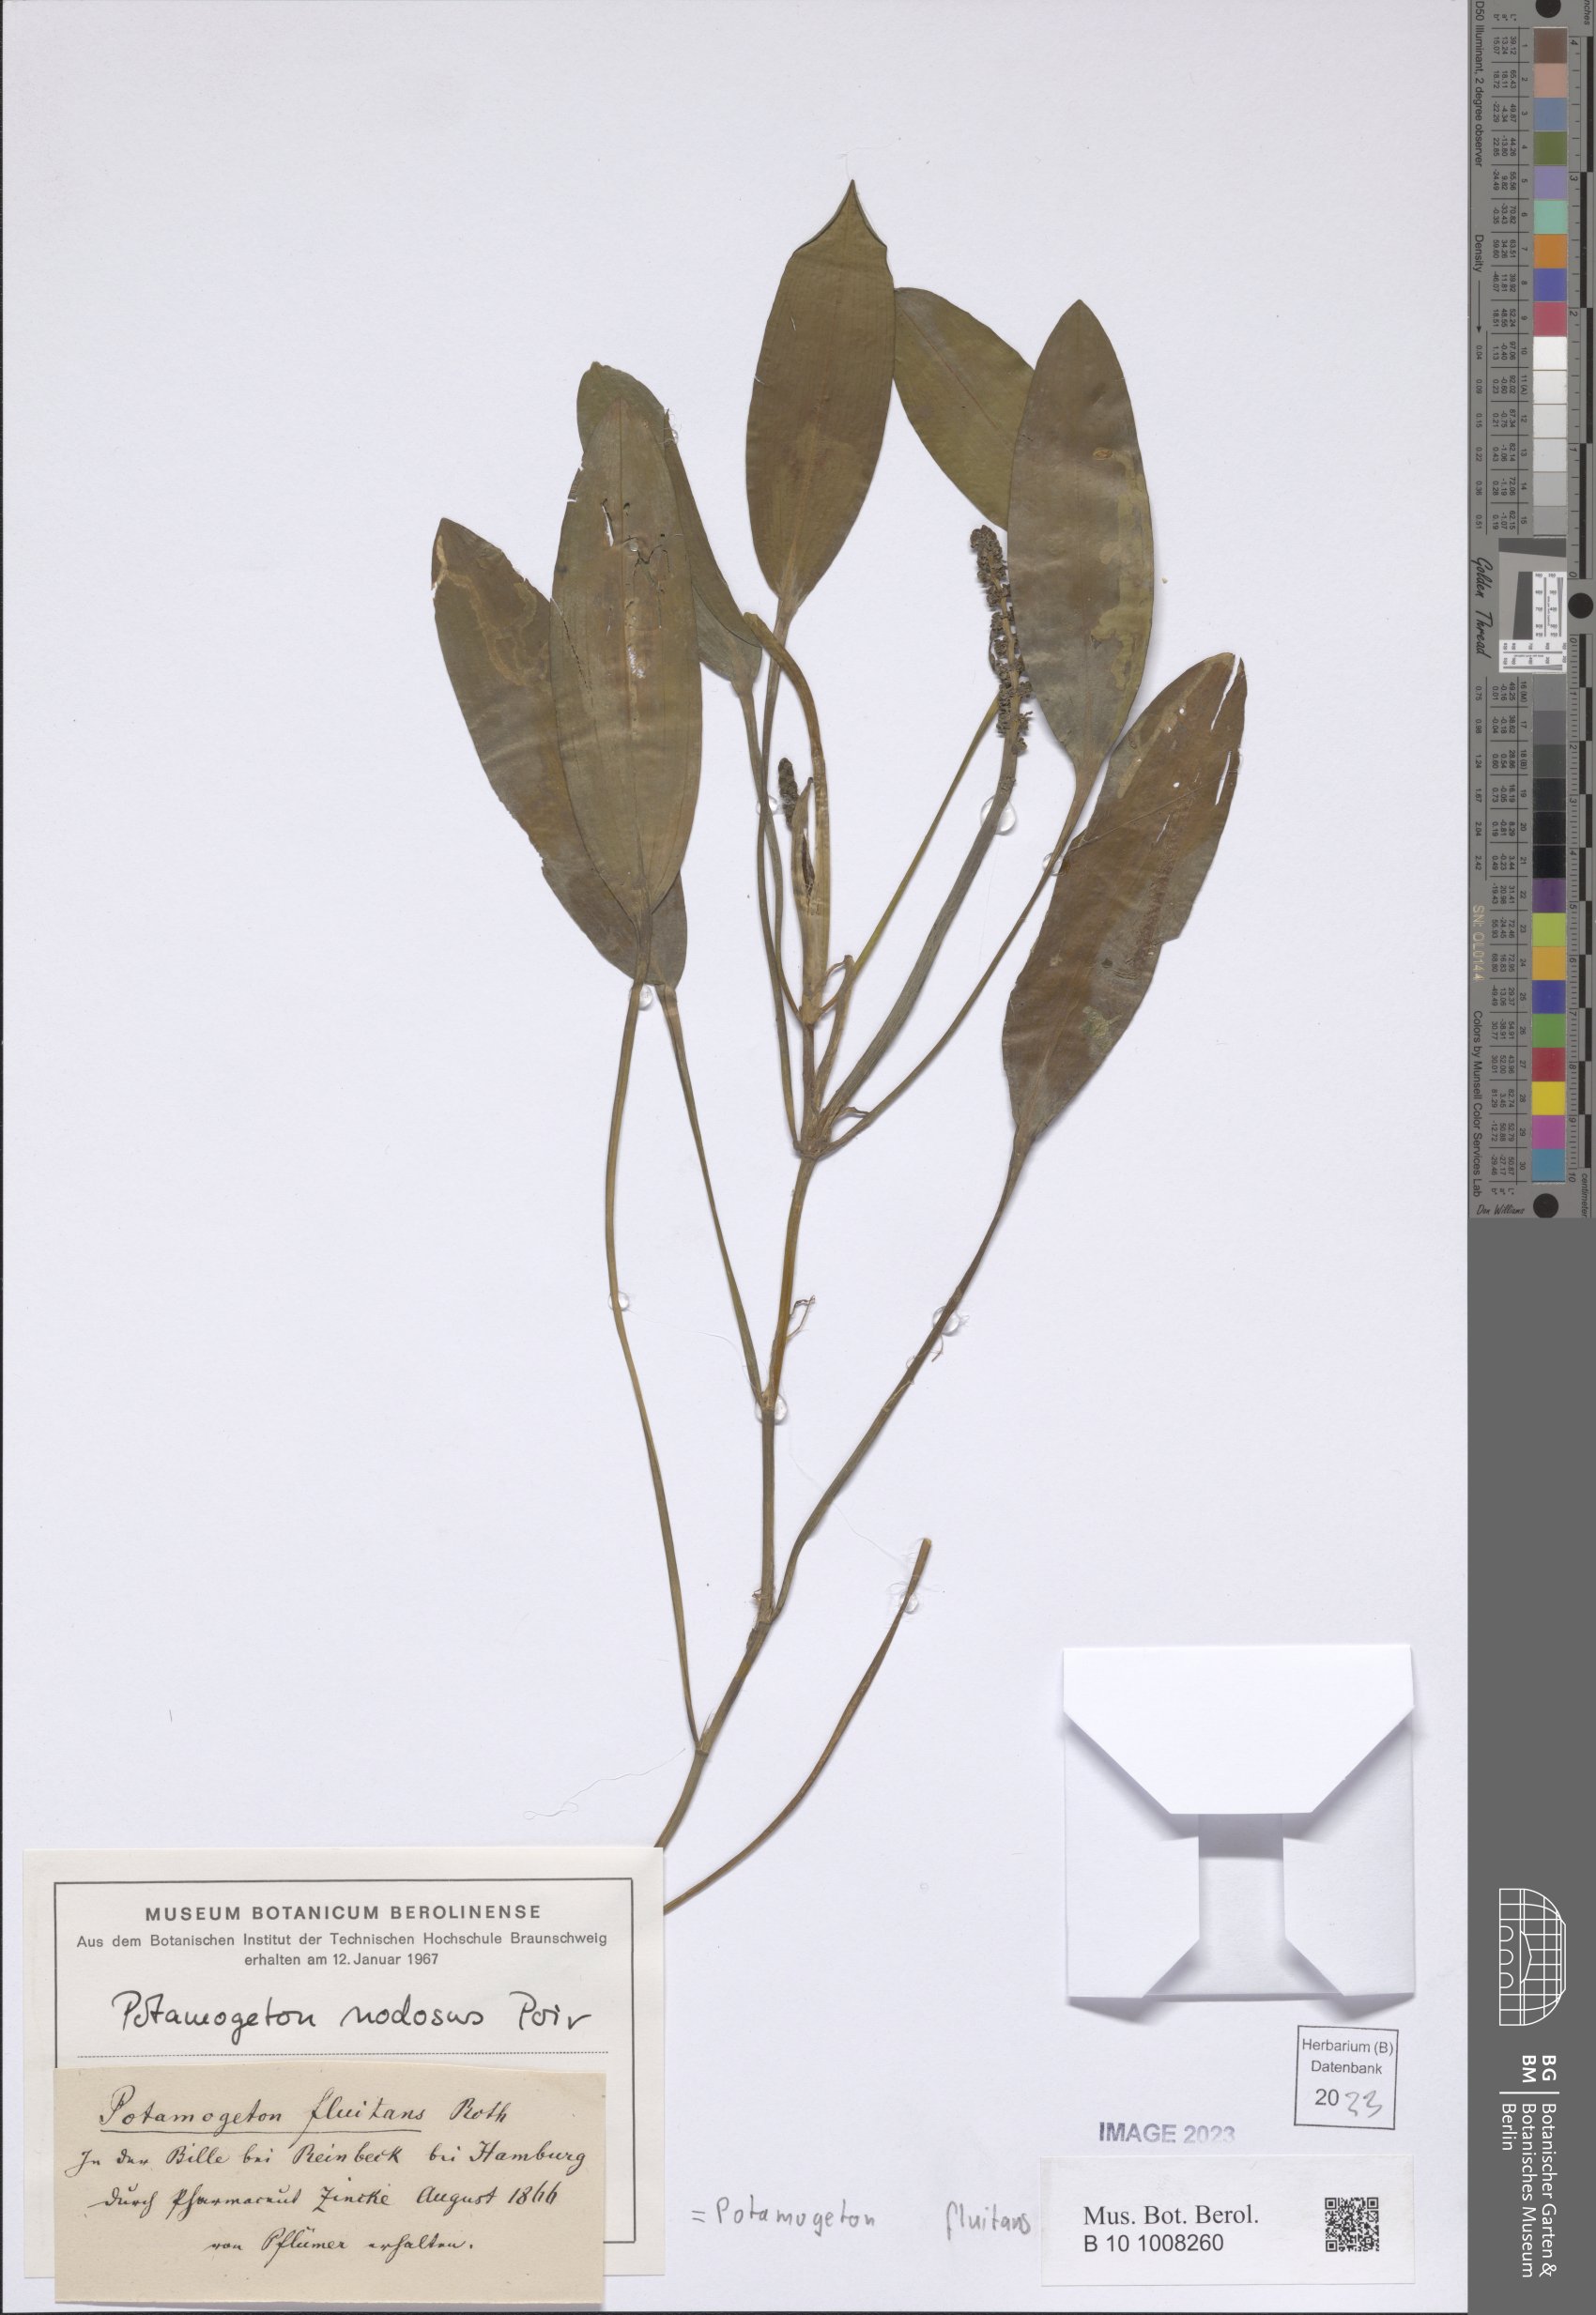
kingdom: Plantae
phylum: Tracheophyta
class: Liliopsida
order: Alismatales
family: Potamogetonaceae
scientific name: Potamogetonaceae
